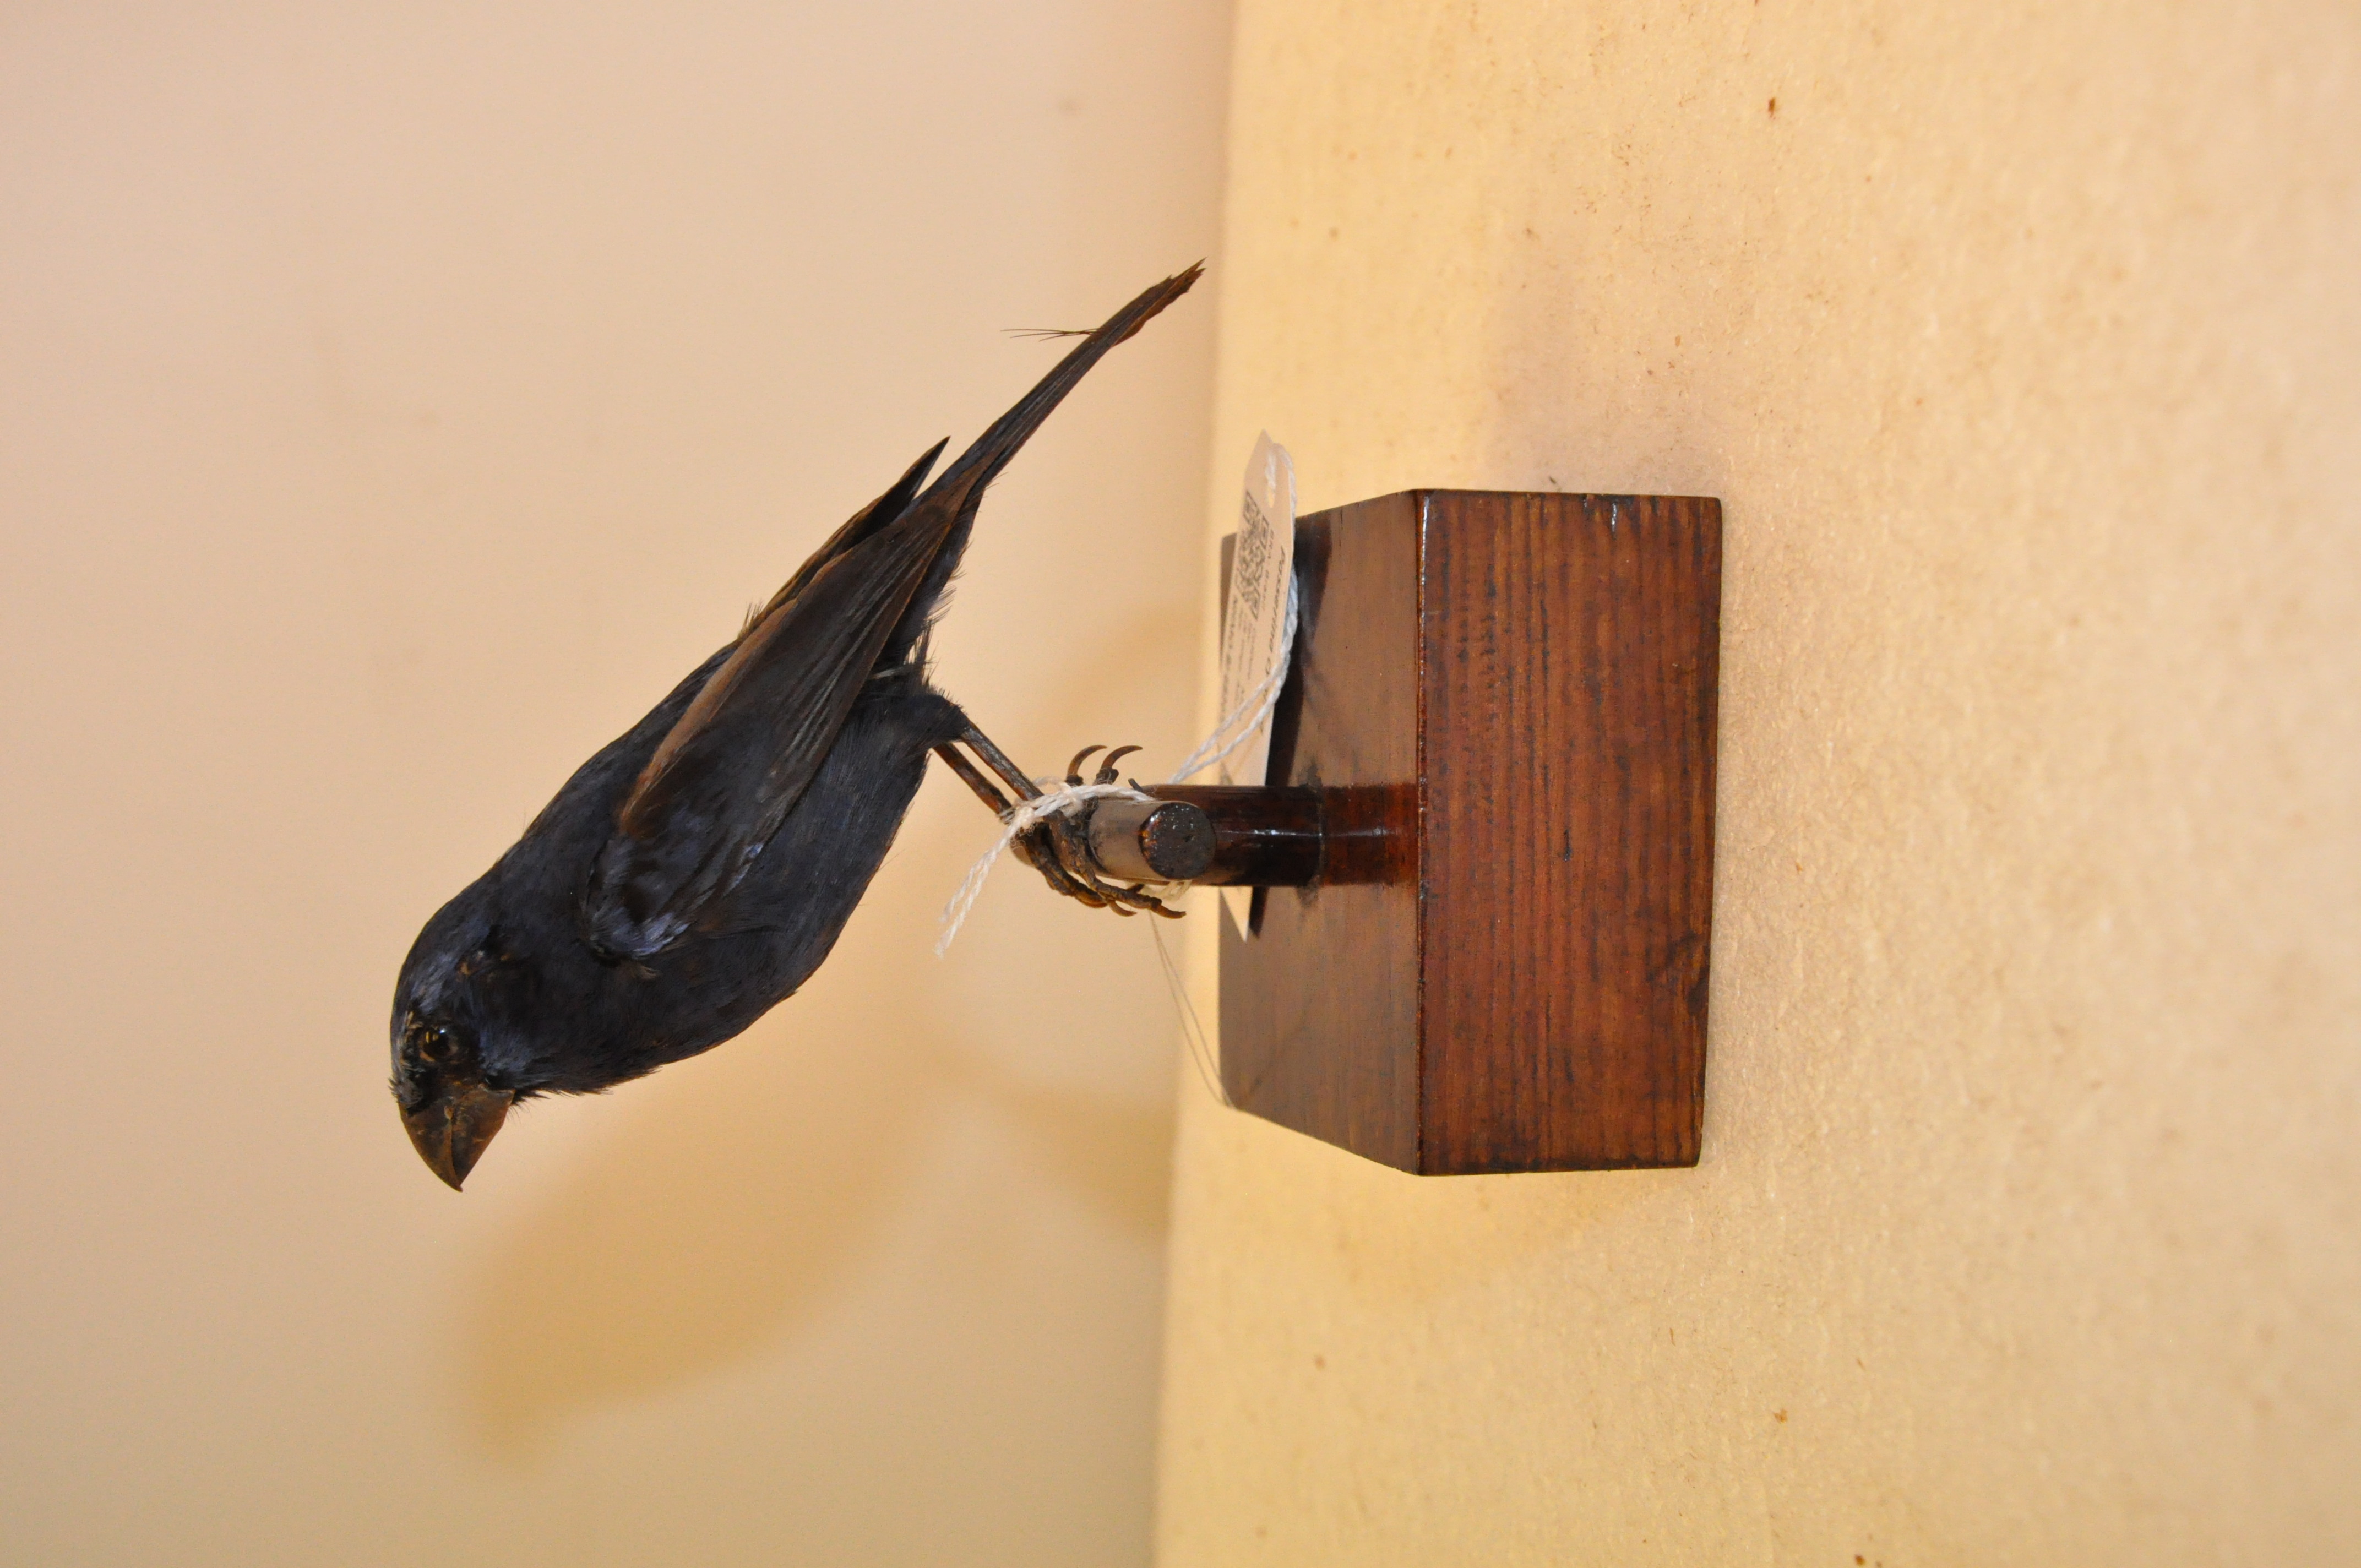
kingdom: Animalia
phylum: Chordata
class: Aves
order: Passeriformes
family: Cardinalidae
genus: Passerina
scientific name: Passerina cyanea
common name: Indigo bunting
